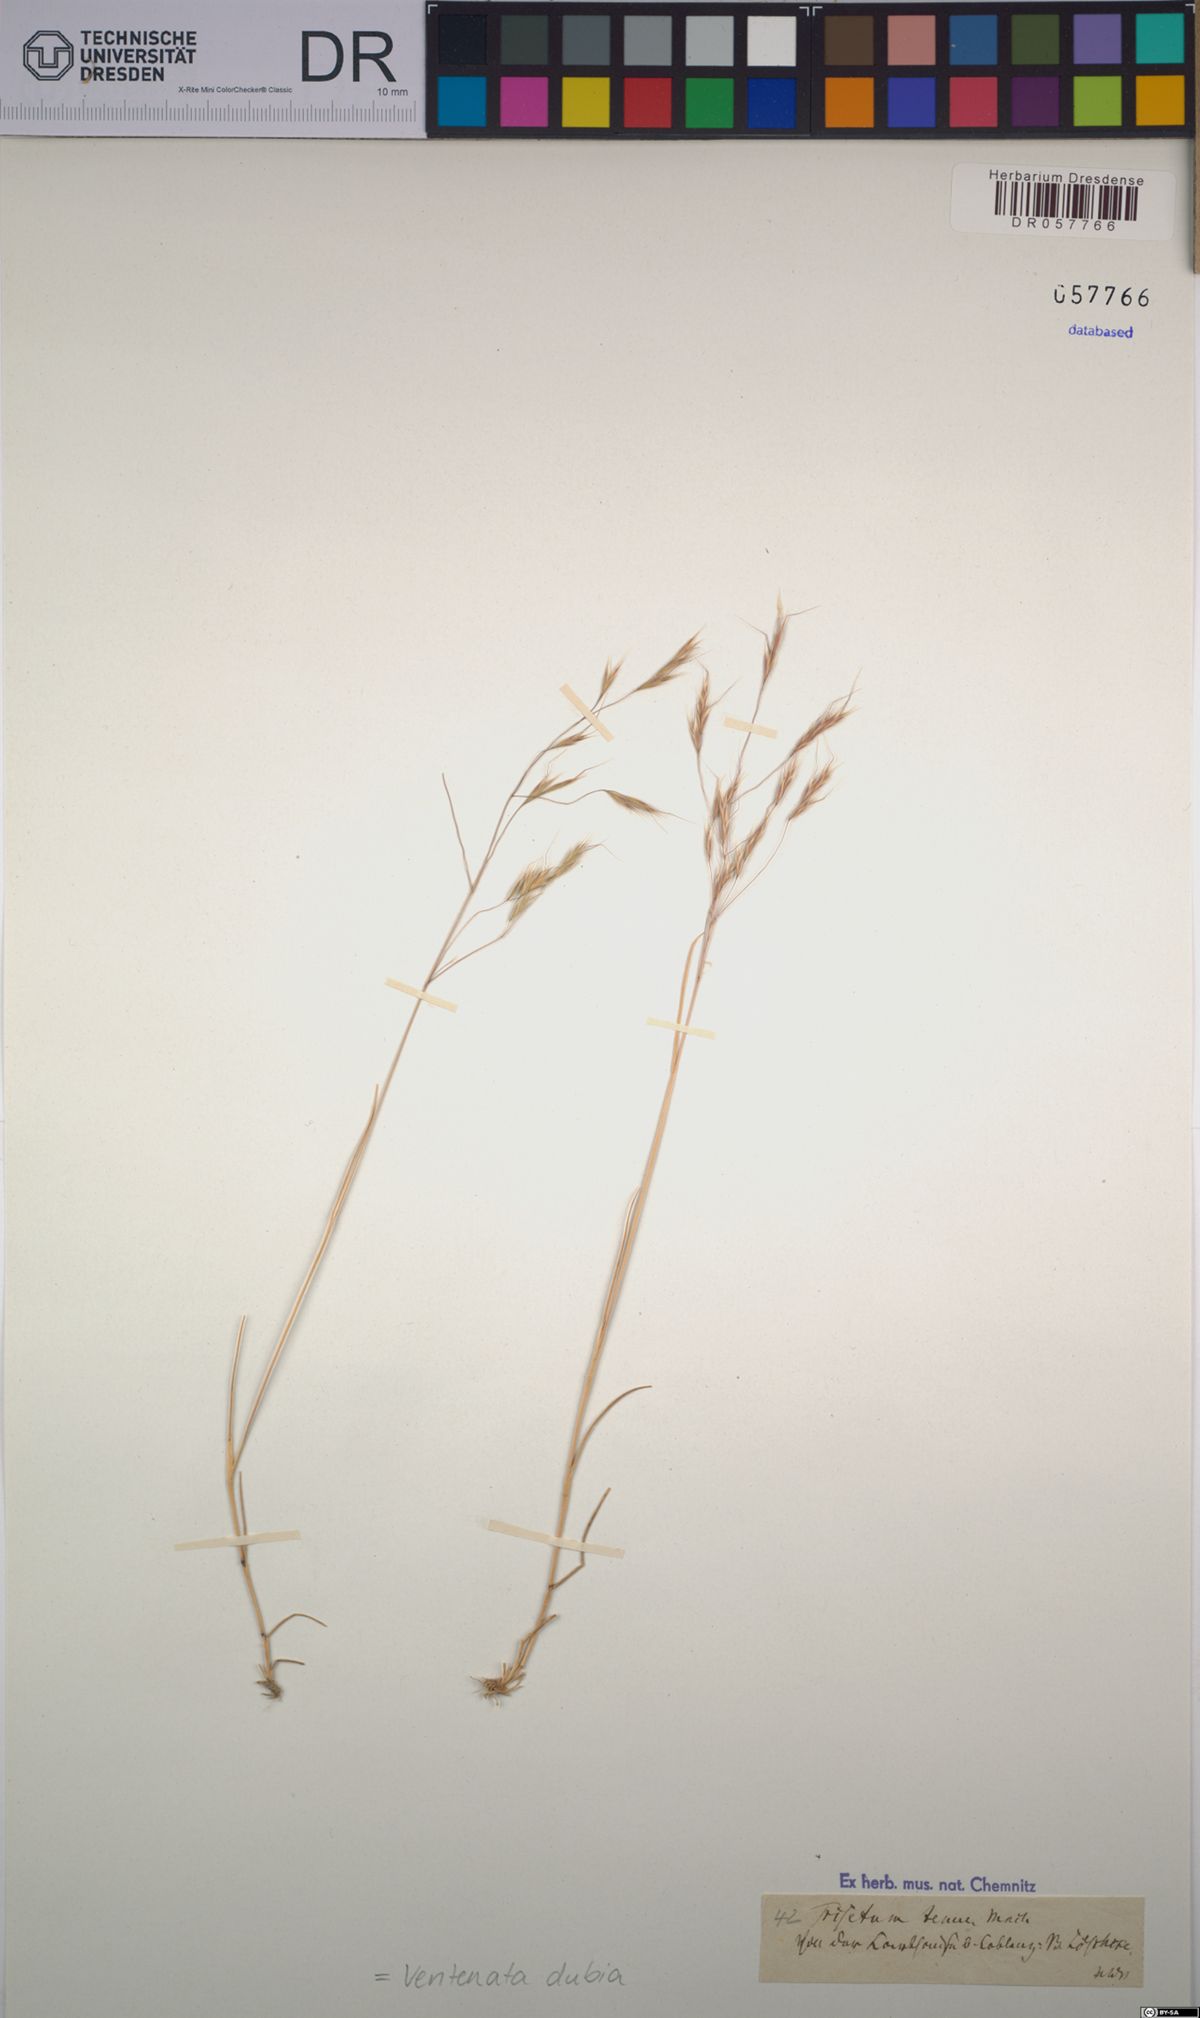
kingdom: Plantae
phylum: Tracheophyta
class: Liliopsida
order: Poales
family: Poaceae
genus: Ventenata
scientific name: Ventenata dubia
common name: North africa grass
